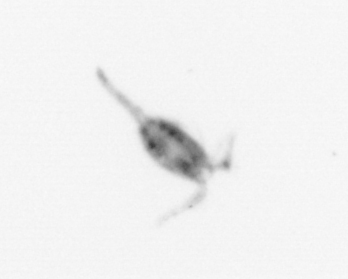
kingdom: Animalia
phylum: Arthropoda
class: Copepoda
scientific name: Copepoda
